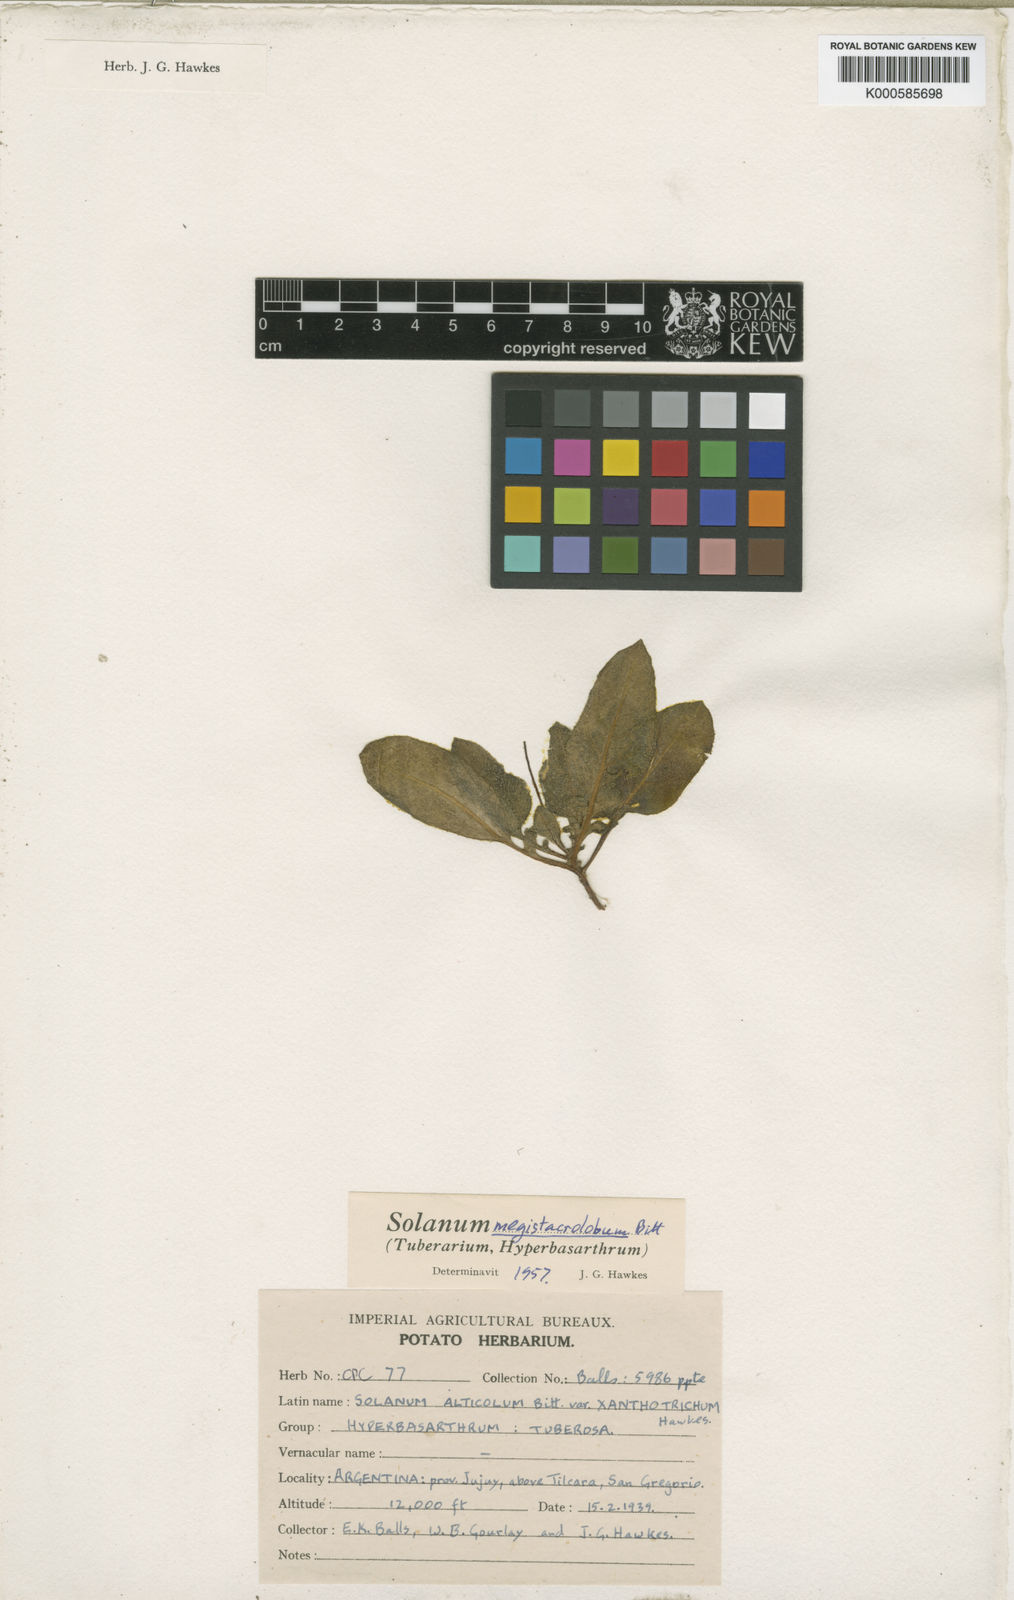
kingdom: Plantae
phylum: Tracheophyta
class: Magnoliopsida
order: Solanales
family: Solanaceae
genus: Solanum
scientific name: Solanum boliviense
